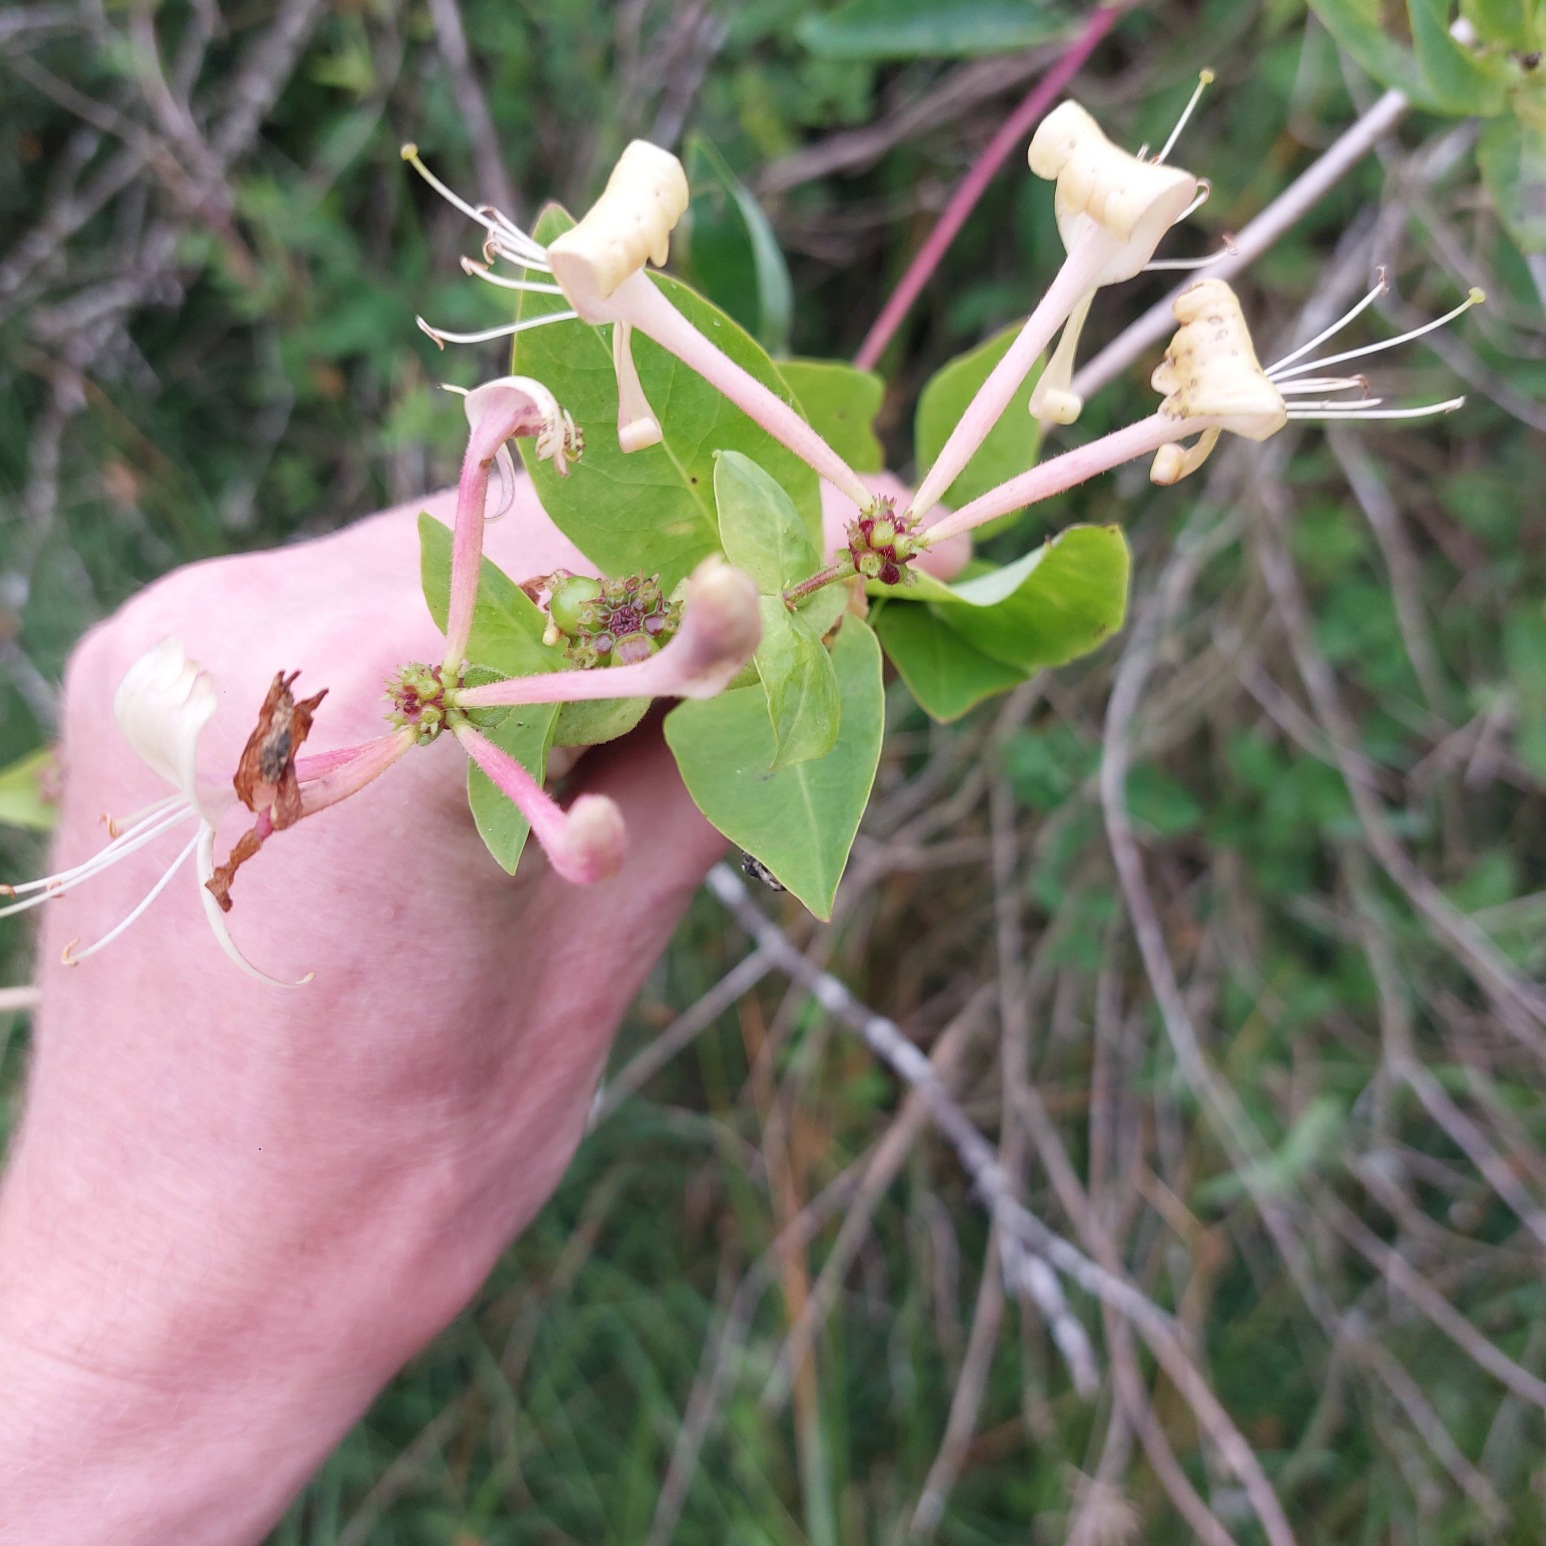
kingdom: Plantae
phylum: Tracheophyta
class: Magnoliopsida
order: Dipsacales
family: Caprifoliaceae
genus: Lonicera
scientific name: Lonicera periclymenum
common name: Almindelig gedeblad
